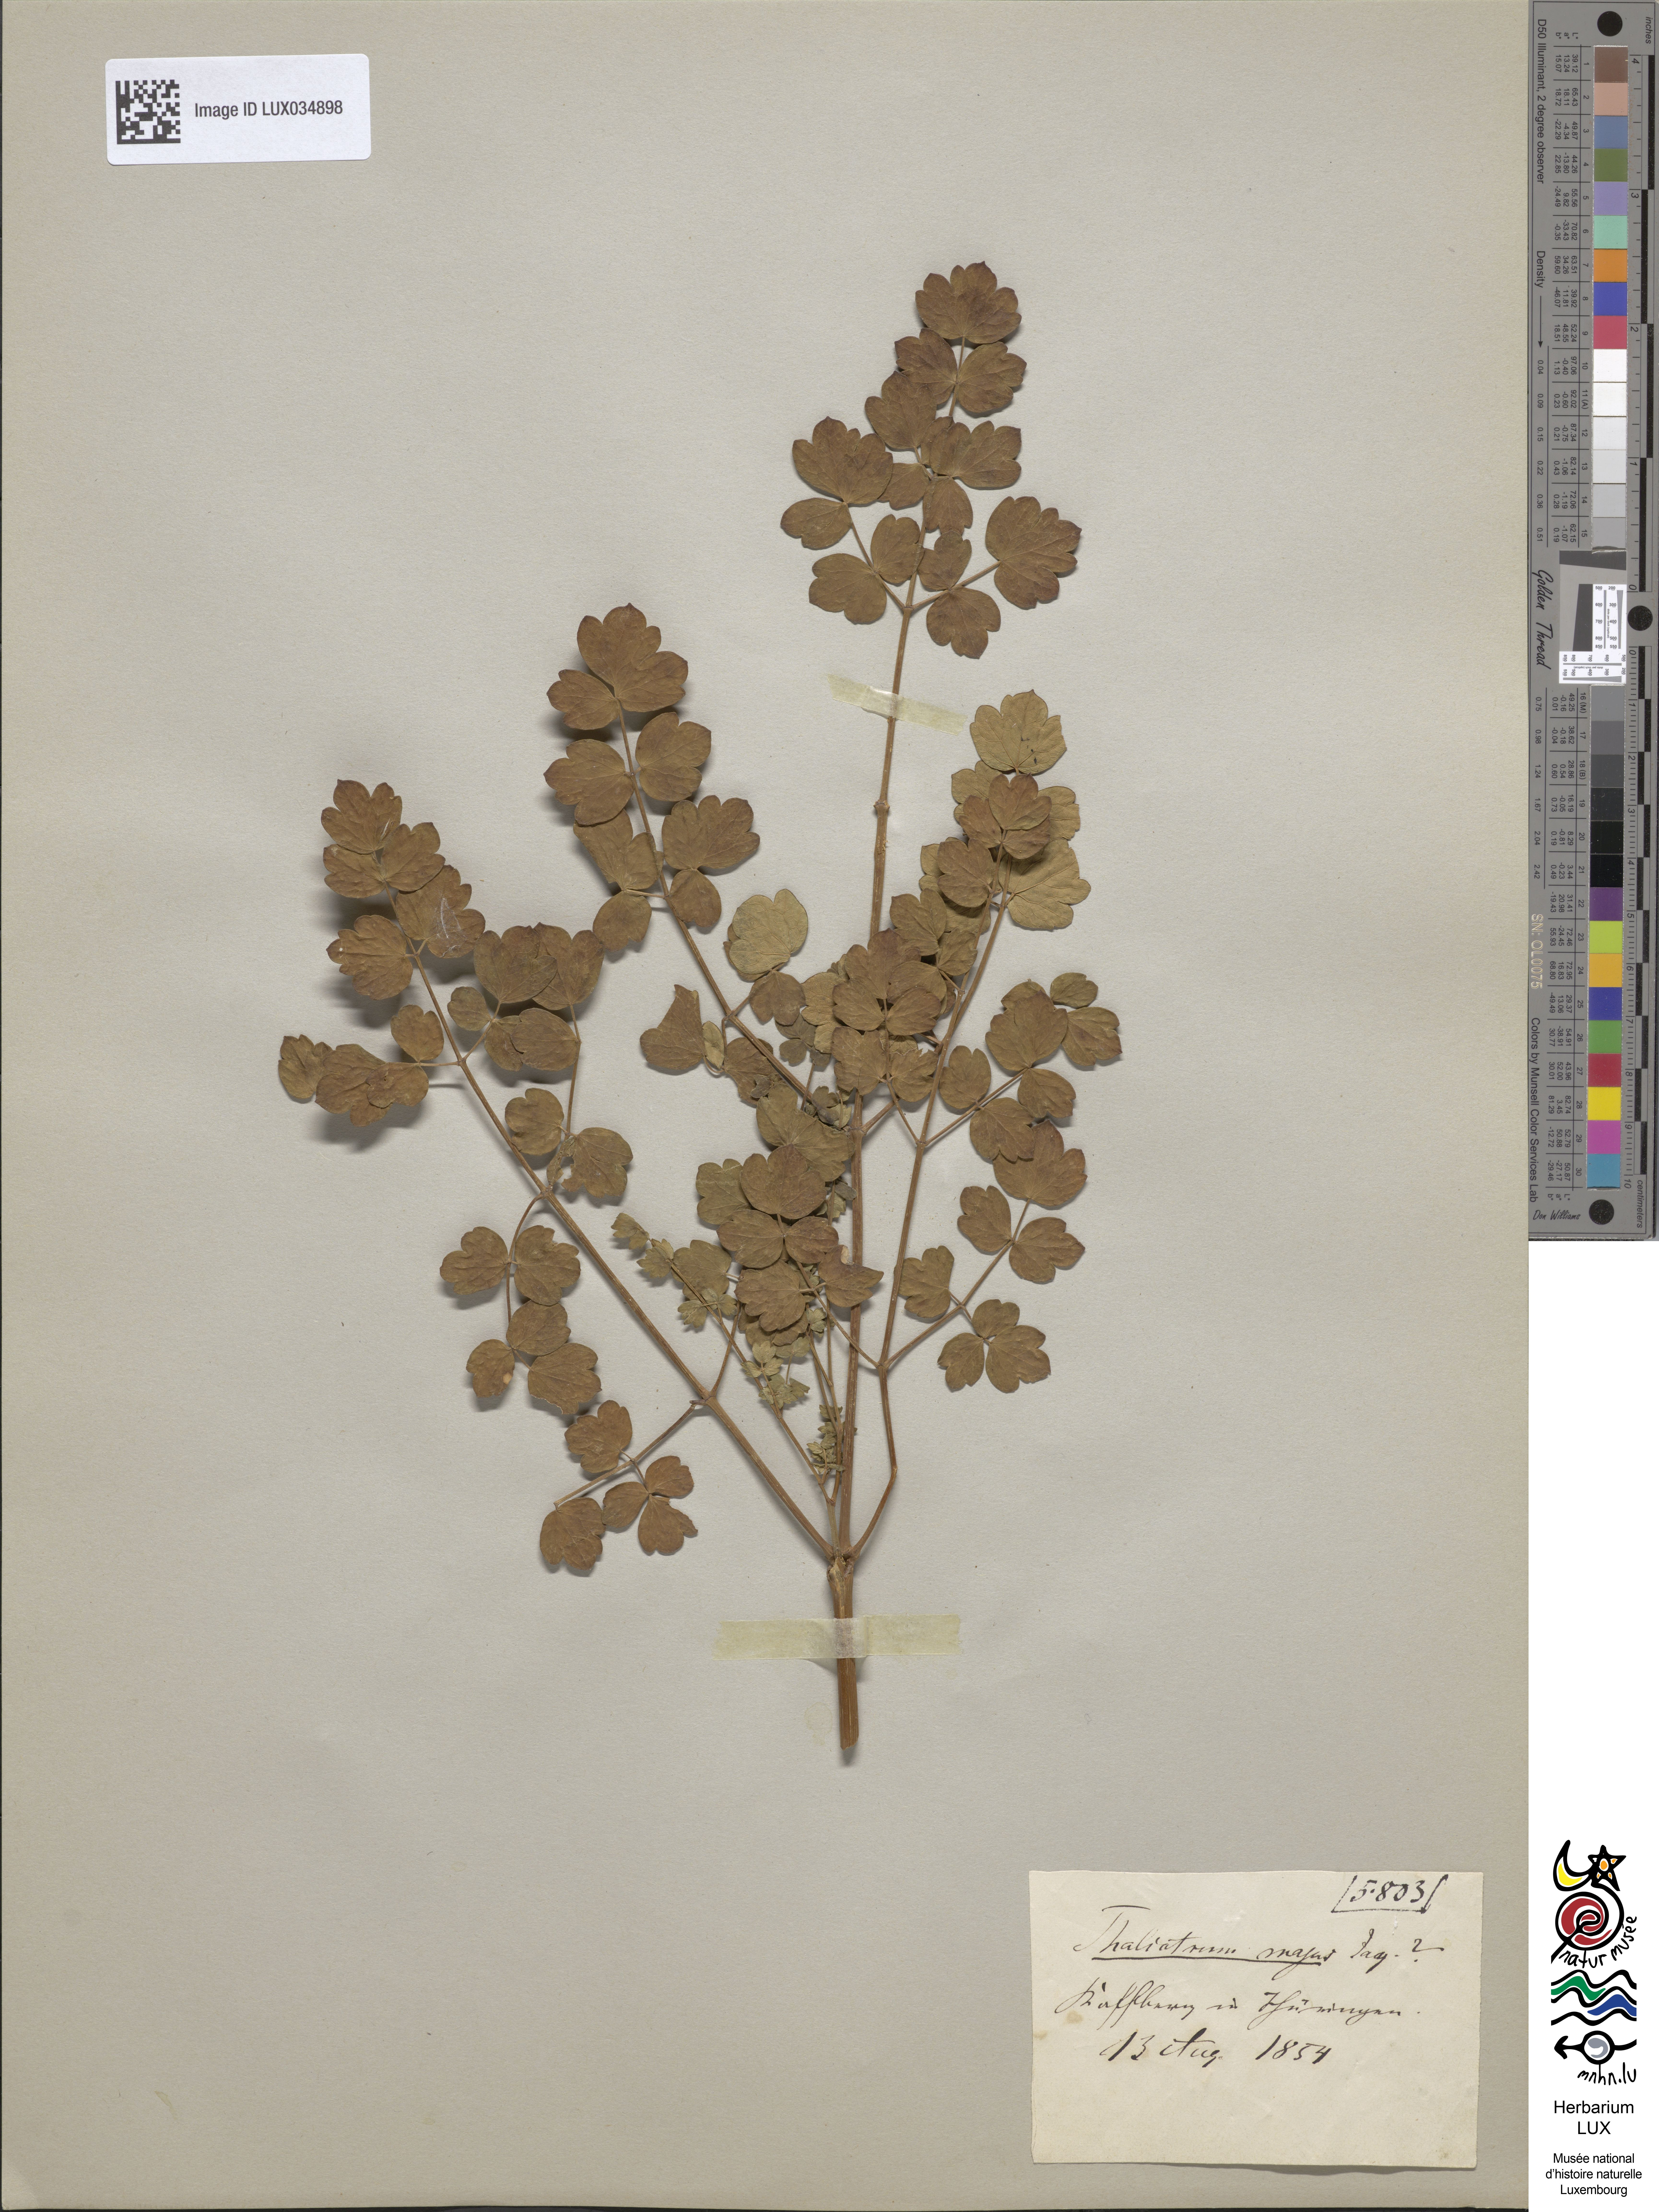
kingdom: Plantae
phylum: Tracheophyta
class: Magnoliopsida
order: Ranunculales
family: Ranunculaceae
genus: Thalictrum
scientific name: Thalictrum minus
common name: Lesser meadow-rue
